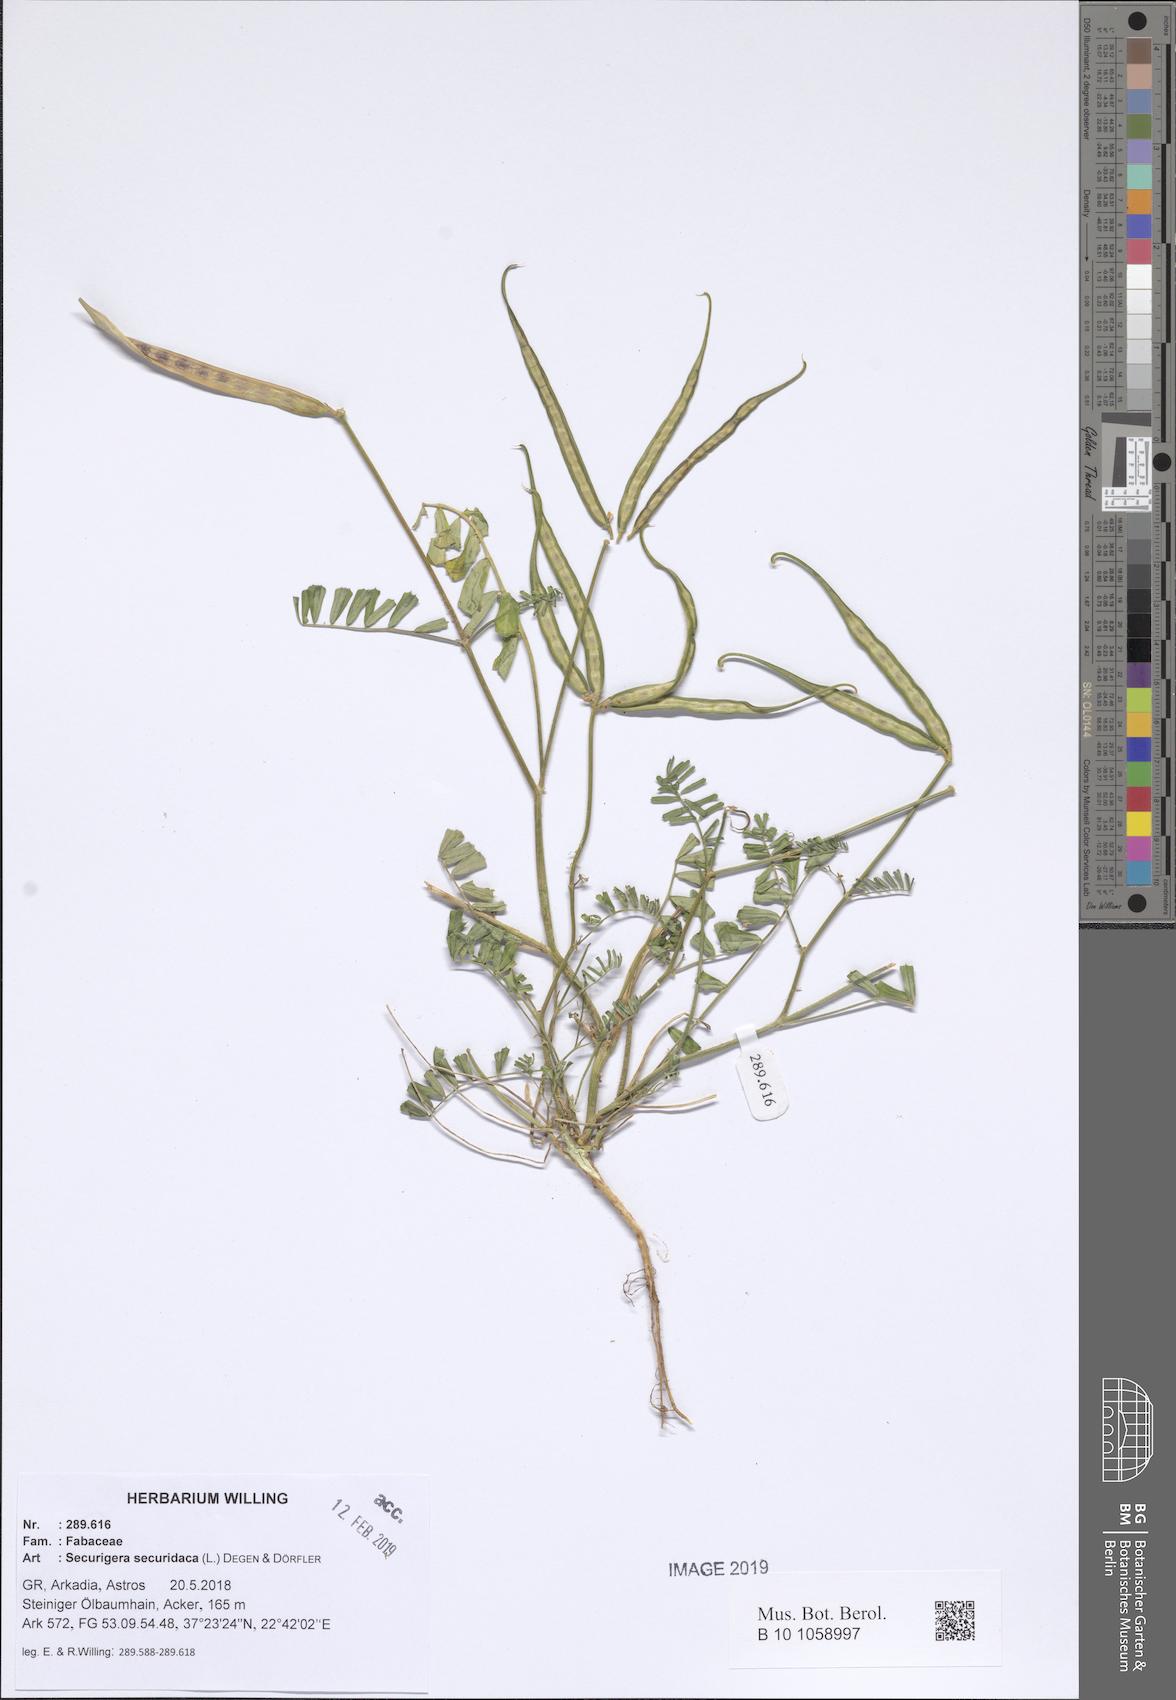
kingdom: Plantae
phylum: Tracheophyta
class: Magnoliopsida
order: Fabales
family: Fabaceae
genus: Coronilla
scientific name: Coronilla securidaca
